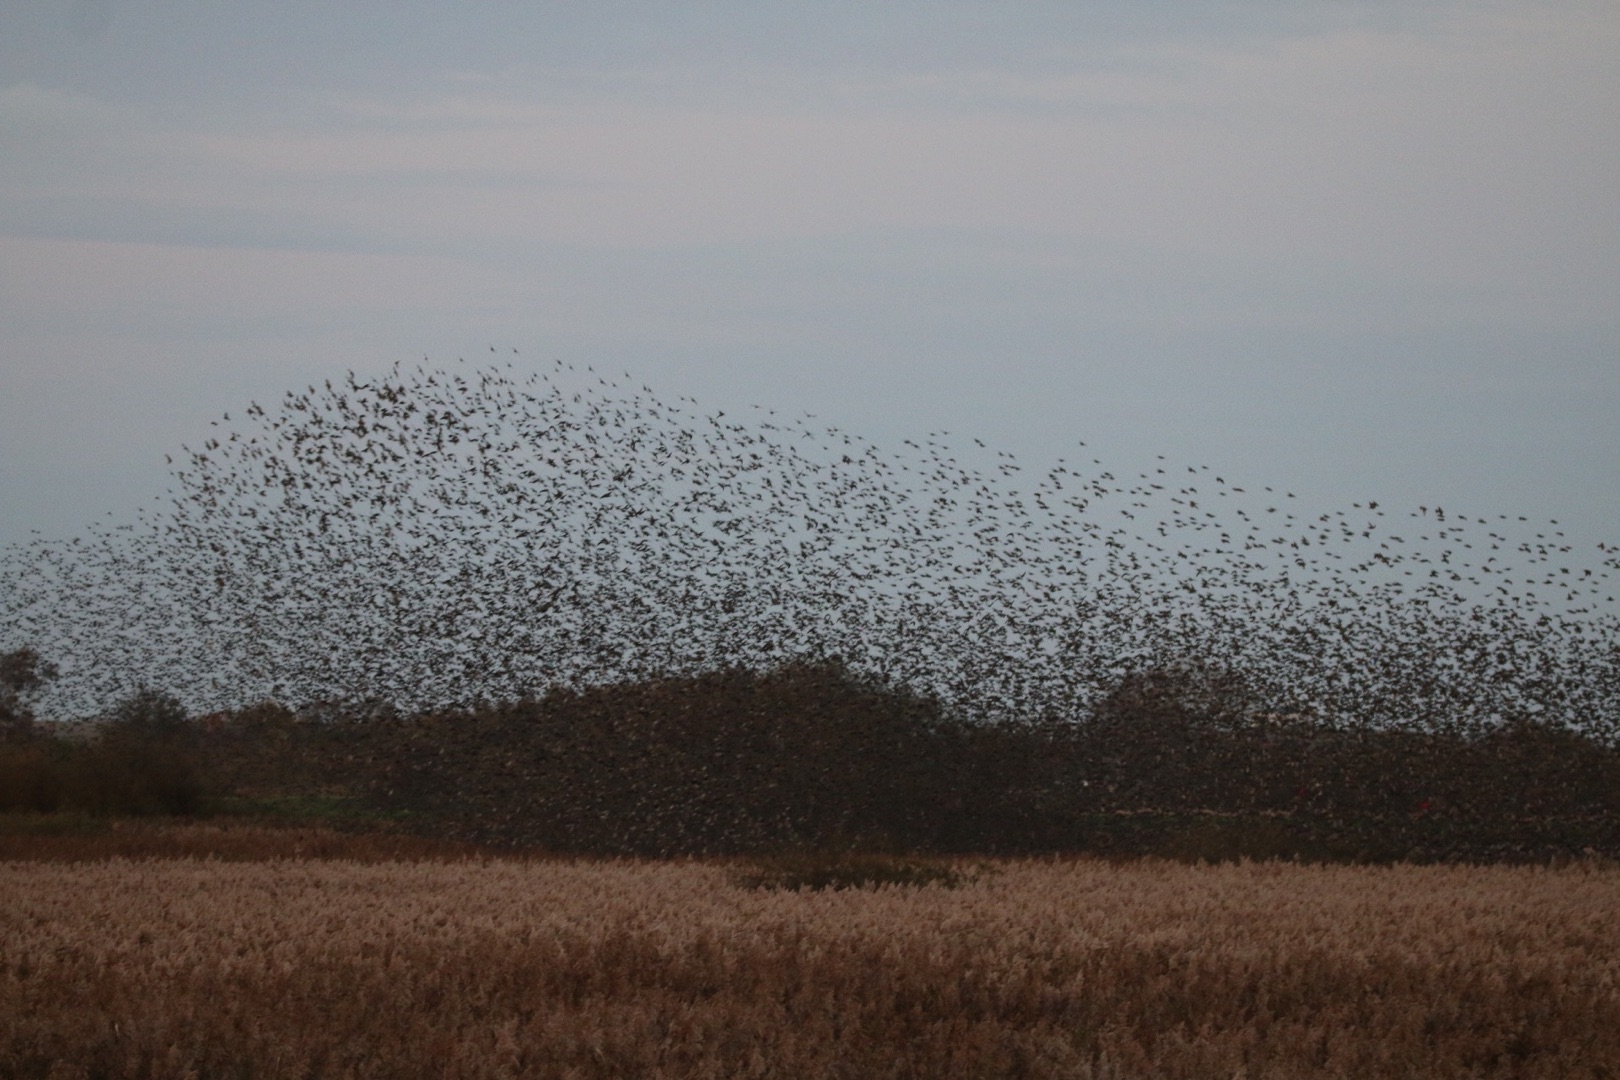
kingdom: Animalia
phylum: Chordata
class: Aves
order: Passeriformes
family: Sturnidae
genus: Sturnus
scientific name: Sturnus vulgaris
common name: Stær
